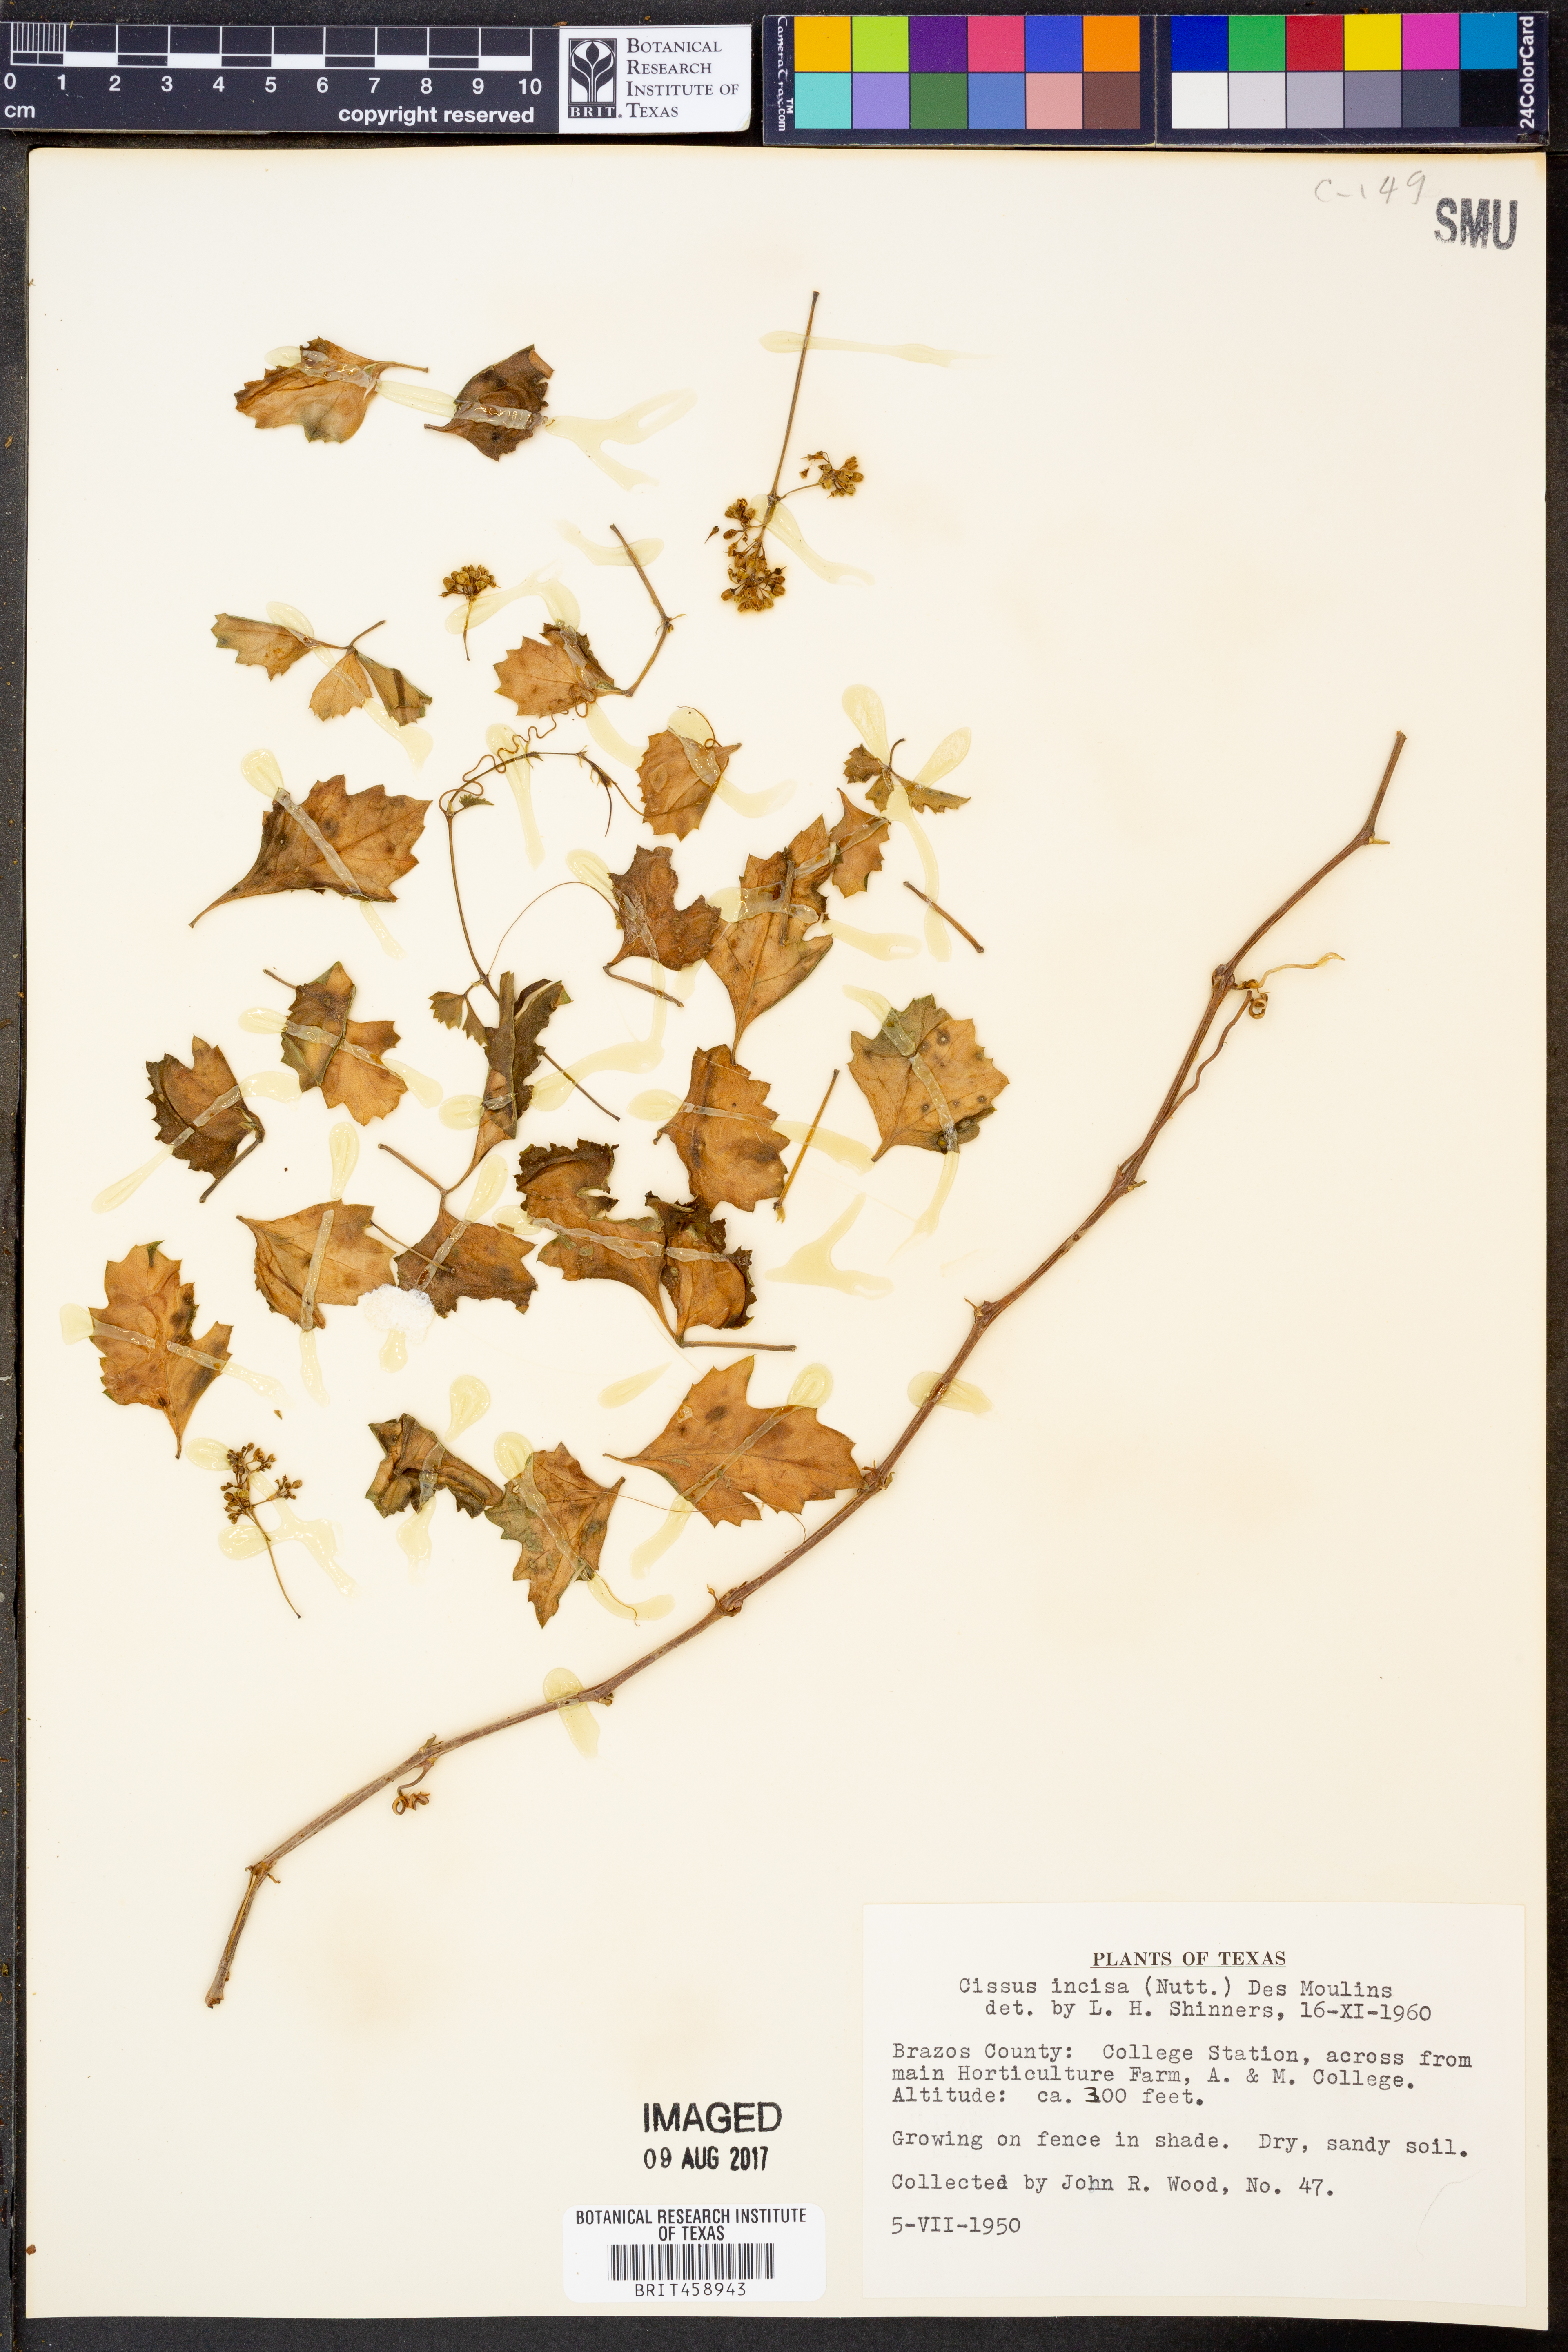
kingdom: Plantae
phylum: Tracheophyta
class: Magnoliopsida
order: Vitales
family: Vitaceae
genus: Cissus
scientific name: Cissus trifoliata
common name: Vine-sorrel
